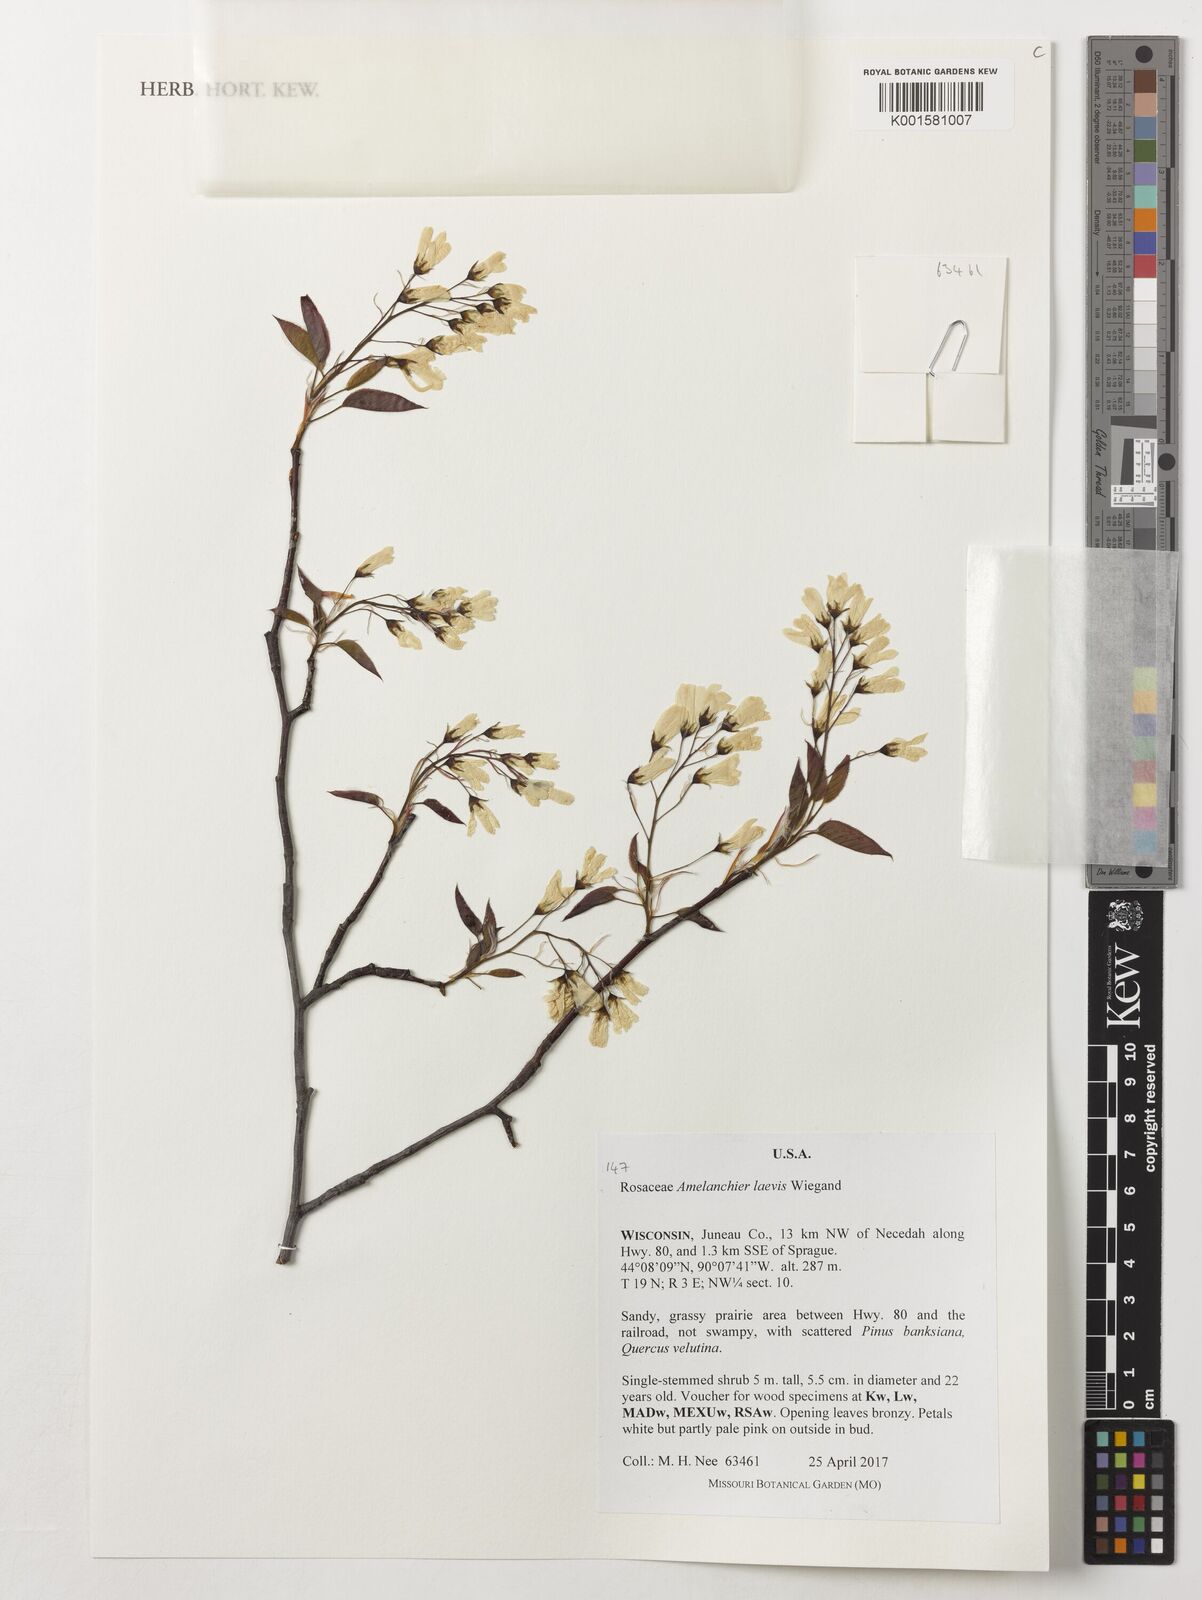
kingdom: Plantae
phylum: Tracheophyta
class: Magnoliopsida
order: Rosales
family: Rosaceae
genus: Amelanchier
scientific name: Amelanchier laevis
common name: Allegheny serviceberry
